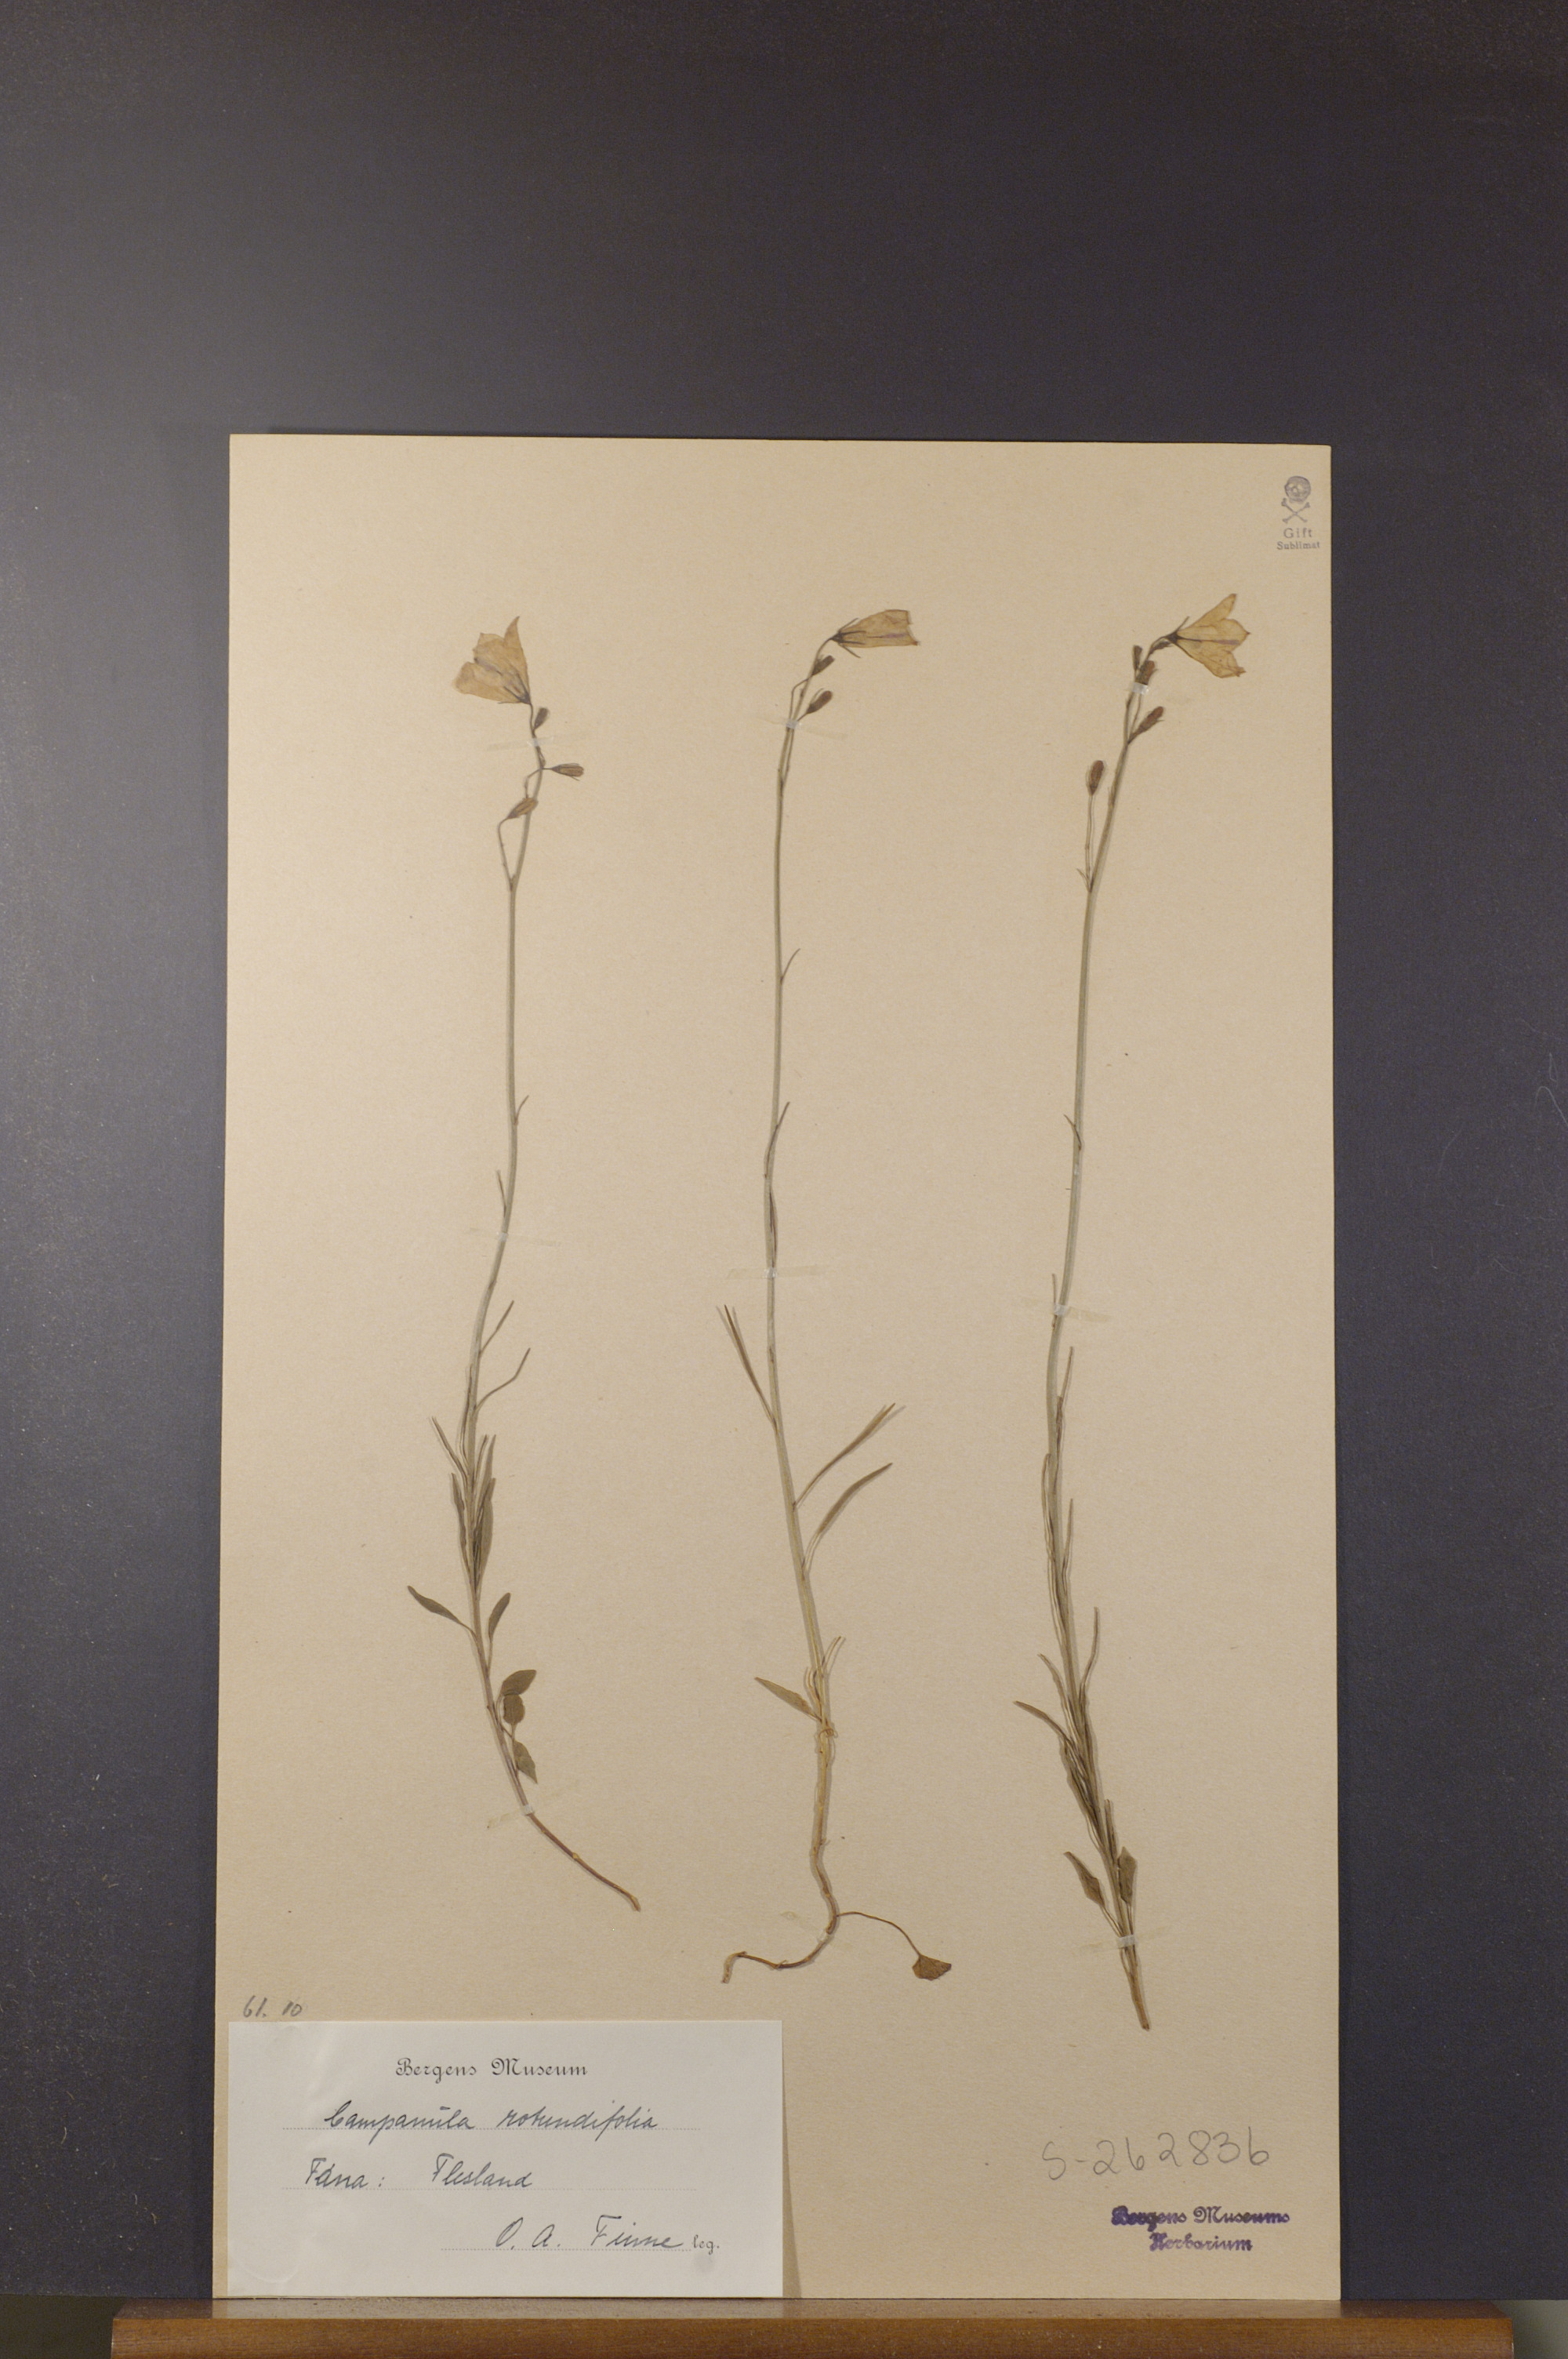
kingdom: Plantae
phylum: Tracheophyta
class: Magnoliopsida
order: Asterales
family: Campanulaceae
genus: Campanula
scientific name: Campanula rotundifolia
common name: Harebell
